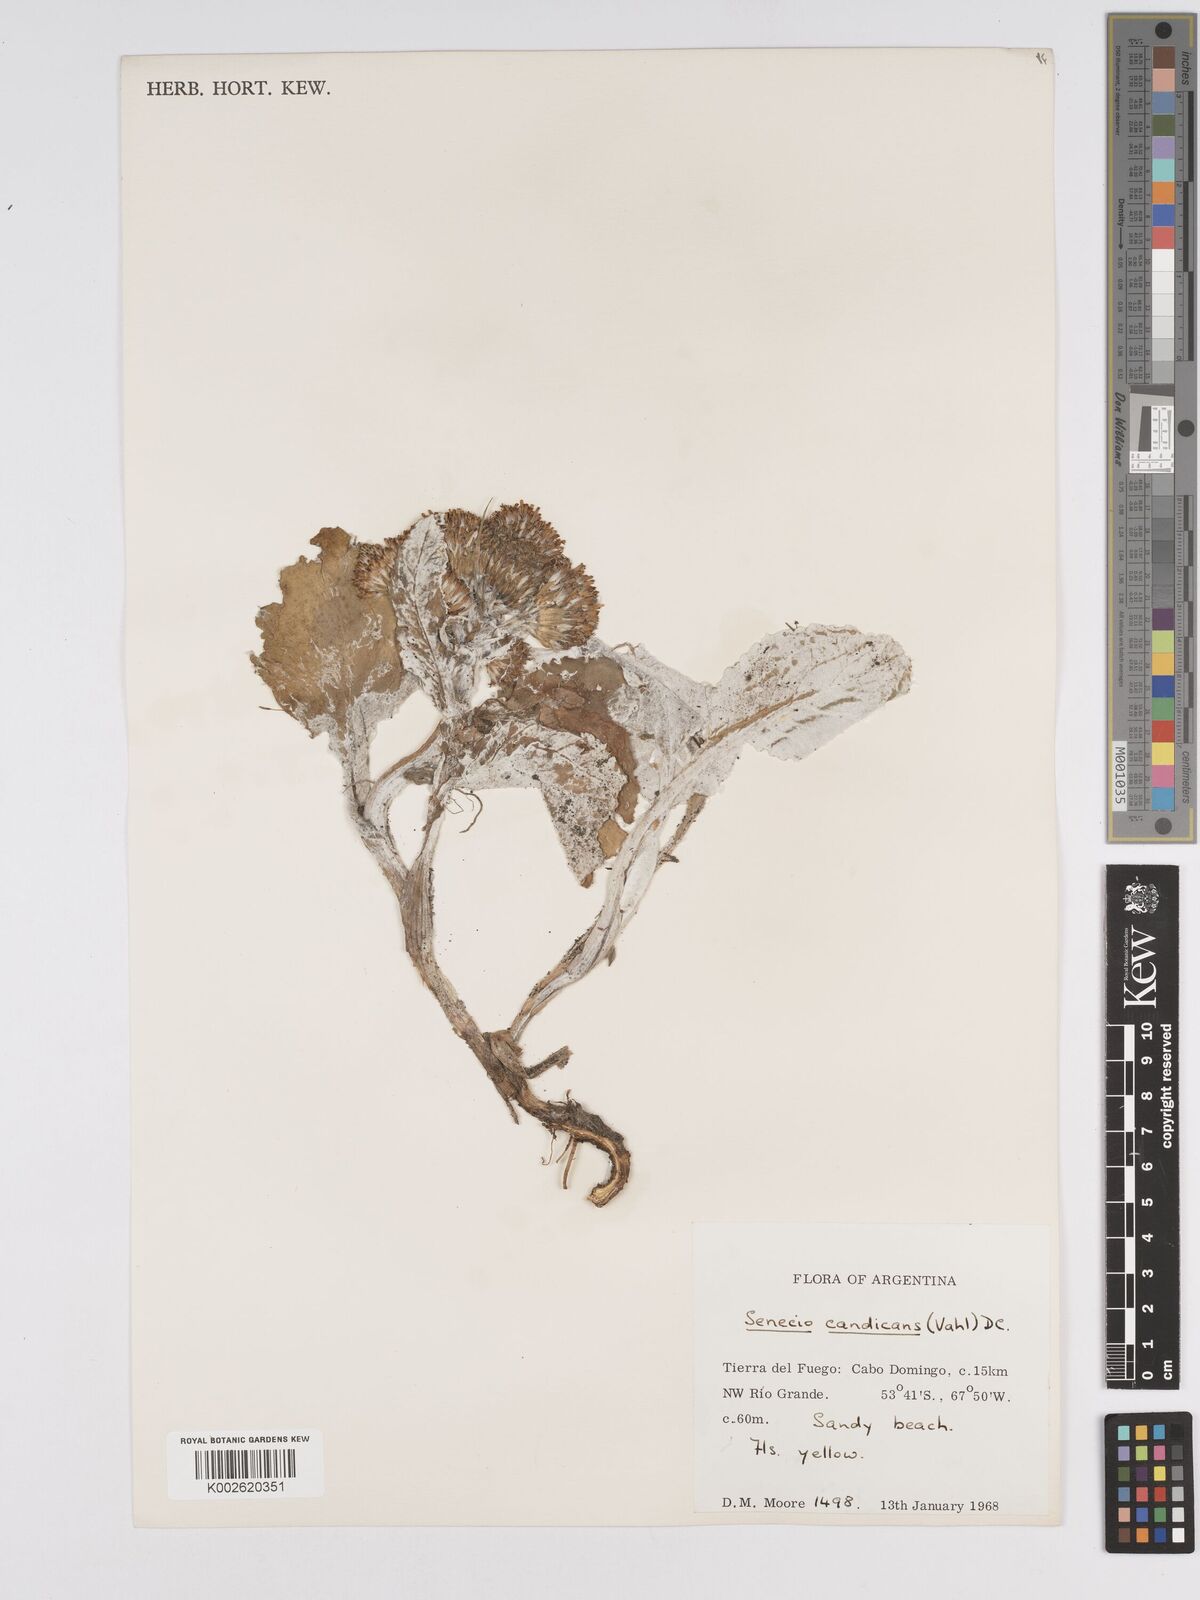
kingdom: Plantae
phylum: Tracheophyta
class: Magnoliopsida
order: Asterales
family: Asteraceae
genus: Senecio
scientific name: Senecio candidans
